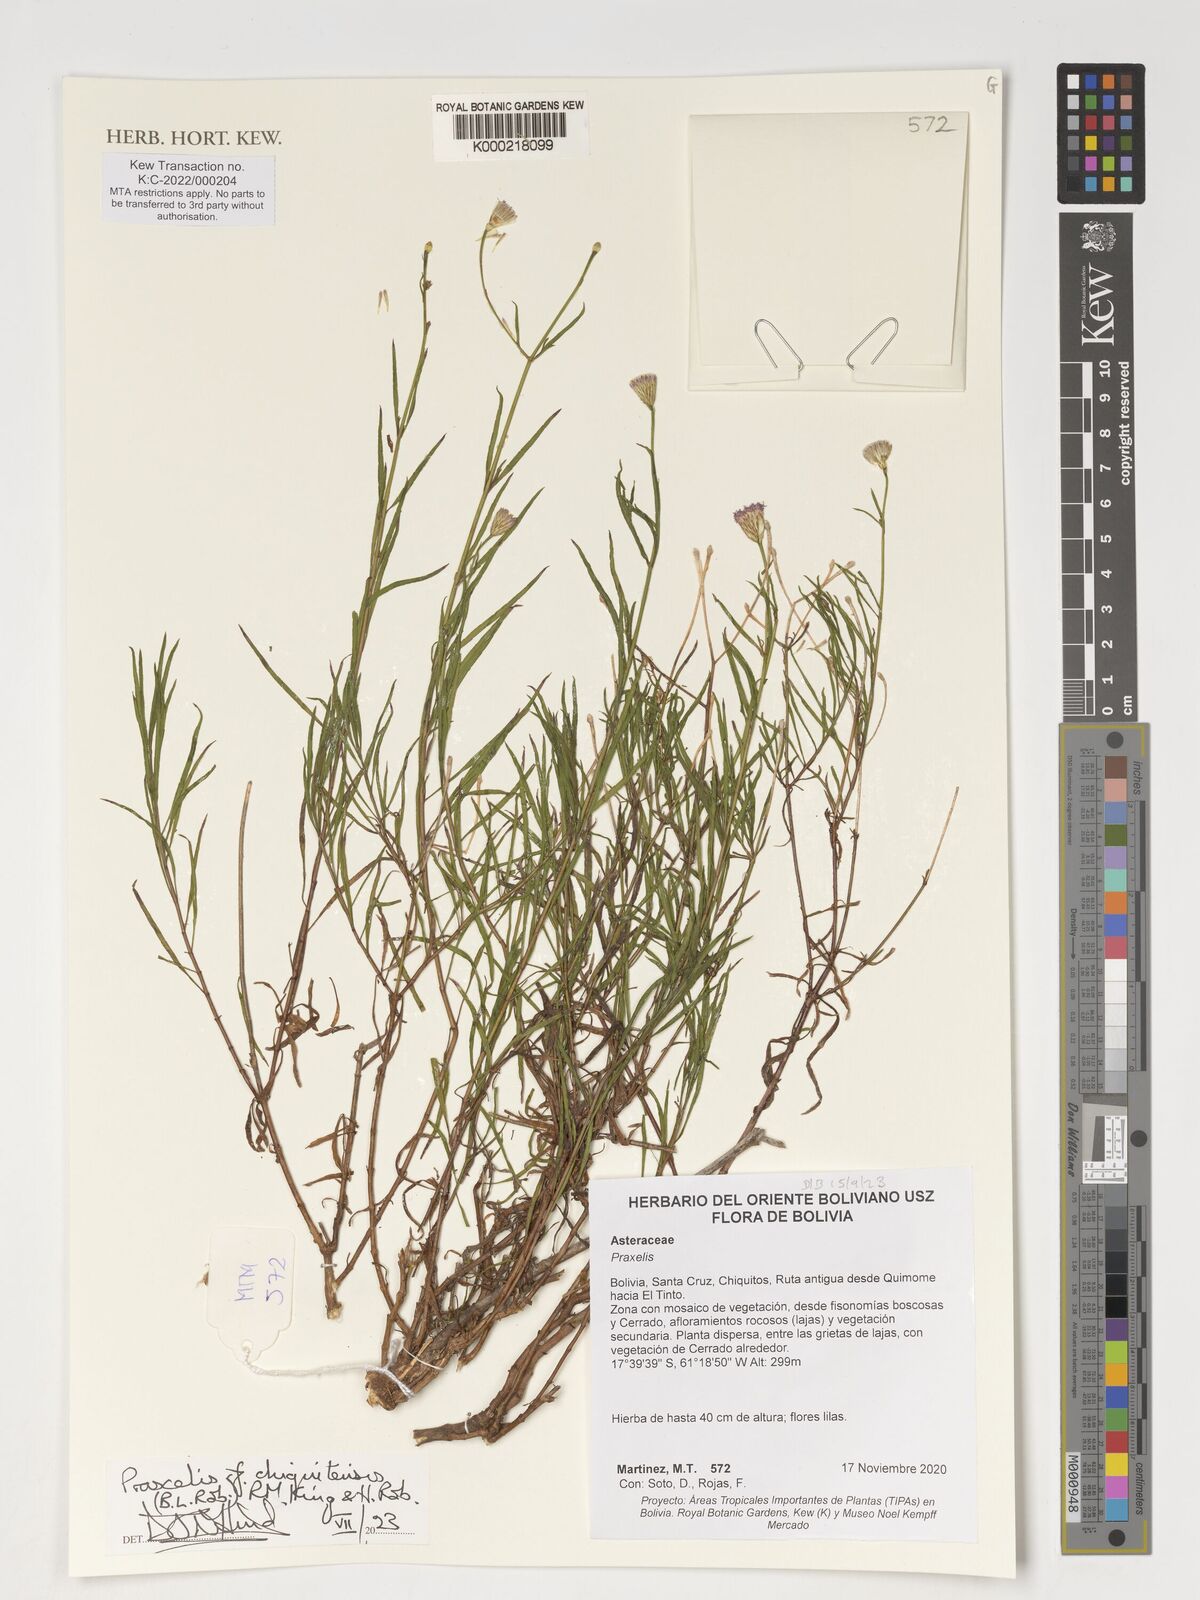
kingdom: Plantae
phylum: Tracheophyta
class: Magnoliopsida
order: Asterales
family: Asteraceae
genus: Praxelis
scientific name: Praxelis chiquitensis
